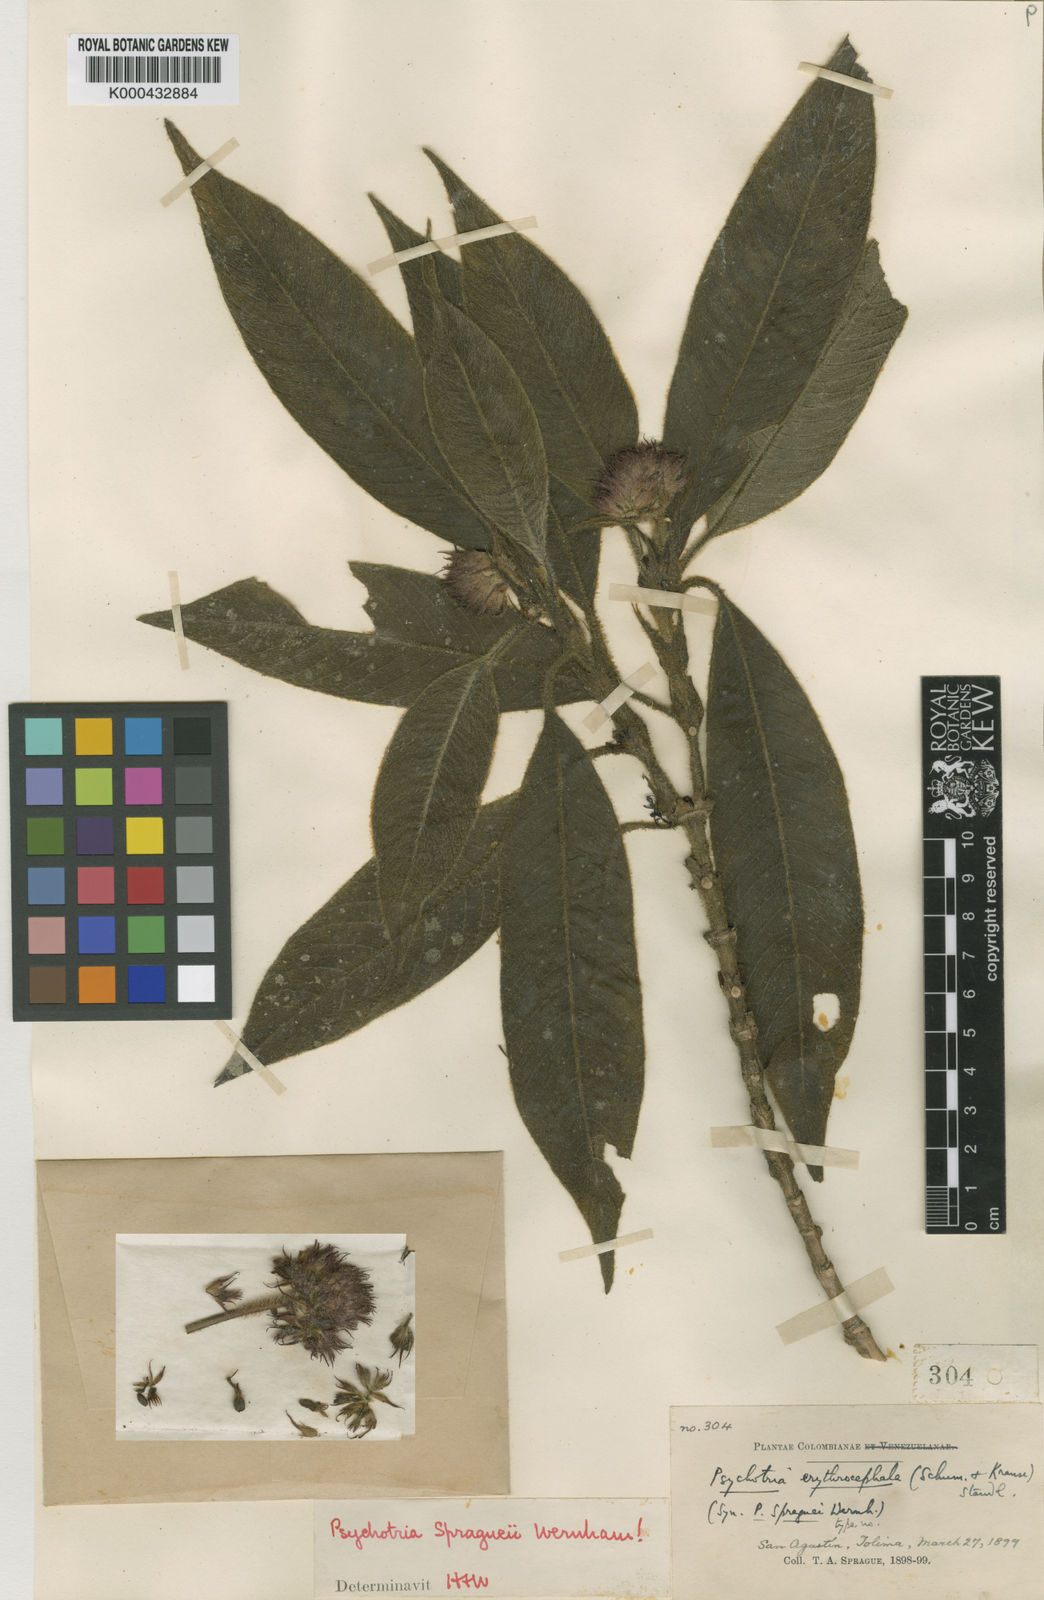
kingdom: Plantae
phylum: Tracheophyta
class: Magnoliopsida
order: Gentianales
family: Rubiaceae
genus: Palicourea
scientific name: Palicourea erythrocephala
